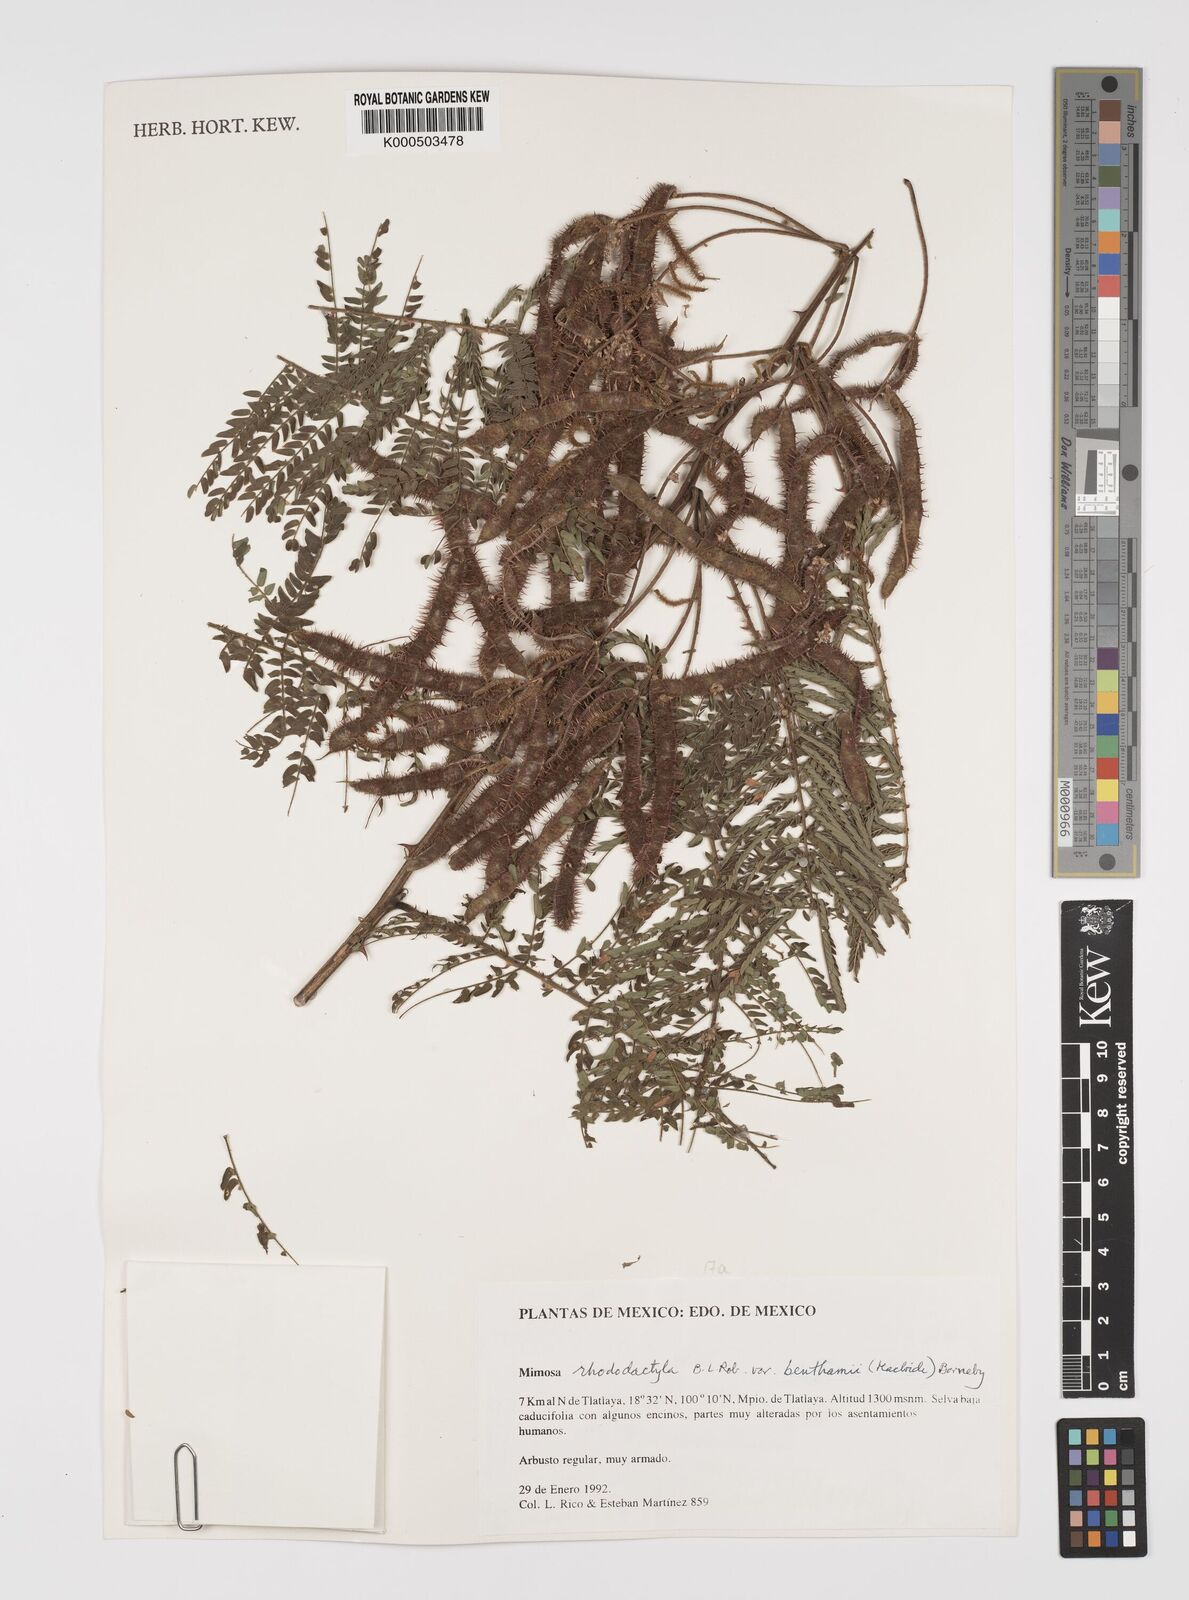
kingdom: Plantae
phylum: Tracheophyta
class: Magnoliopsida
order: Fabales
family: Fabaceae
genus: Mimosa
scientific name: Mimosa benthamii
